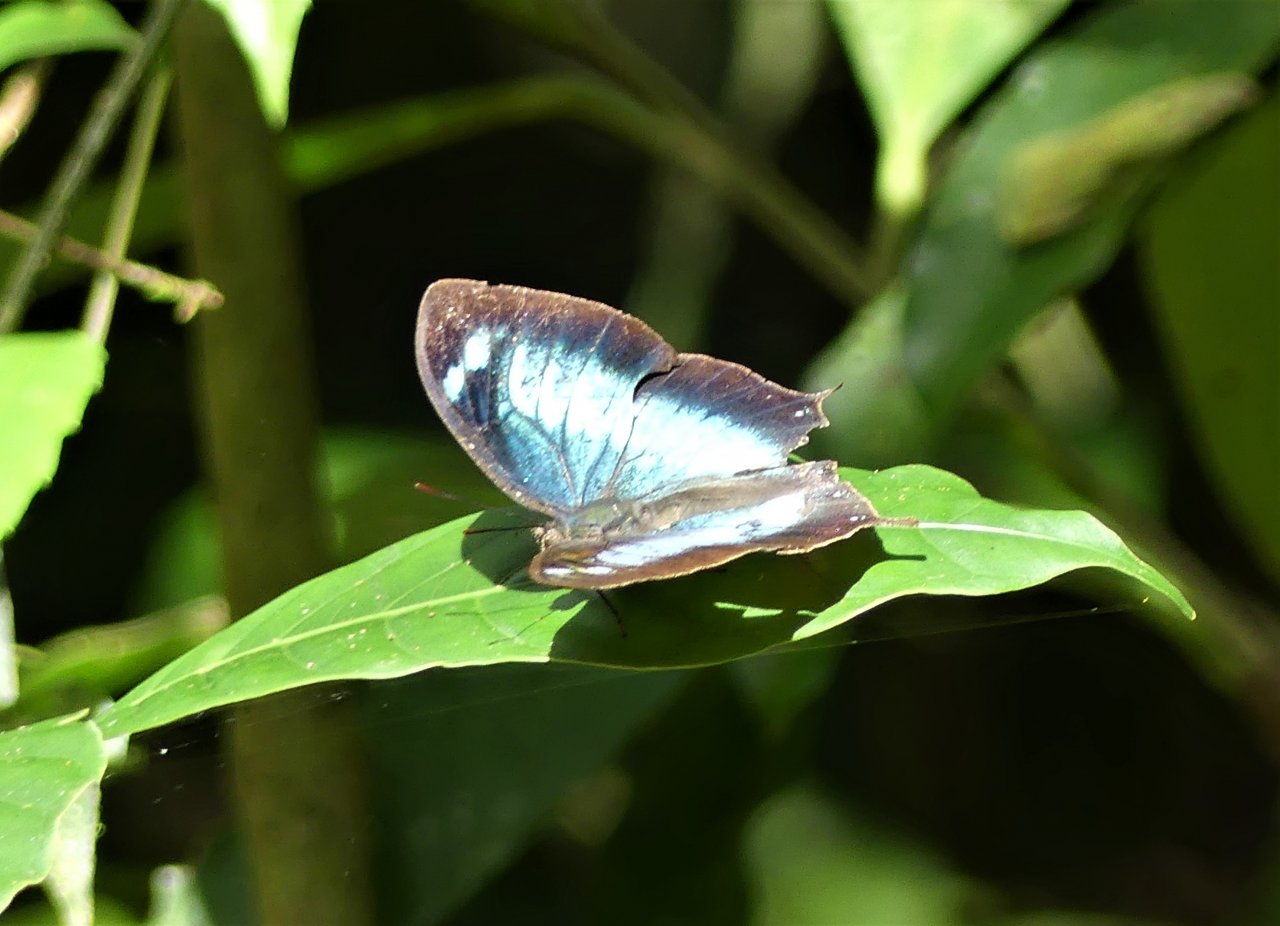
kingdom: Animalia
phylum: Arthropoda
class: Insecta
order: Lepidoptera
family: Nymphalidae
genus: Memphis
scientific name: Memphis moruus
